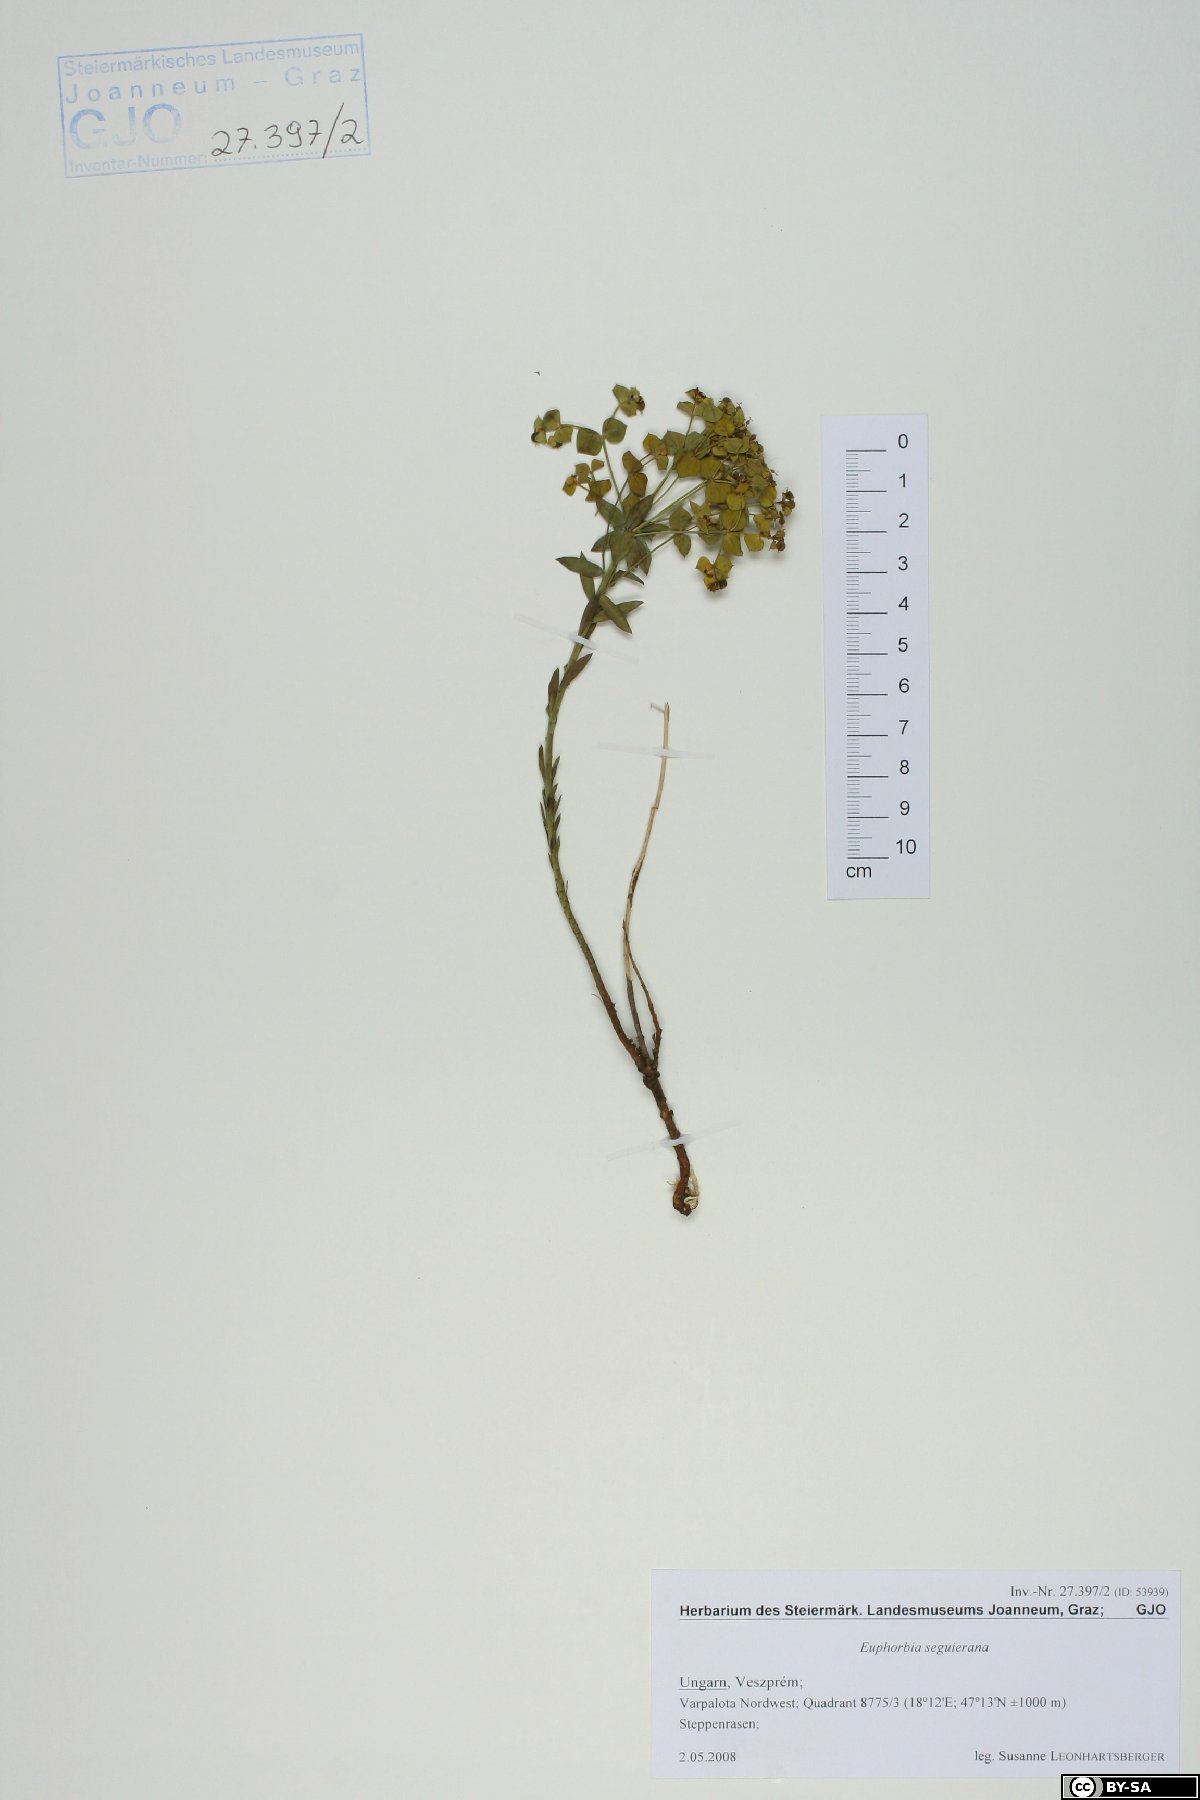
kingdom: Plantae
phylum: Tracheophyta
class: Magnoliopsida
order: Malpighiales
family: Euphorbiaceae
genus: Euphorbia
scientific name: Euphorbia seguieriana
